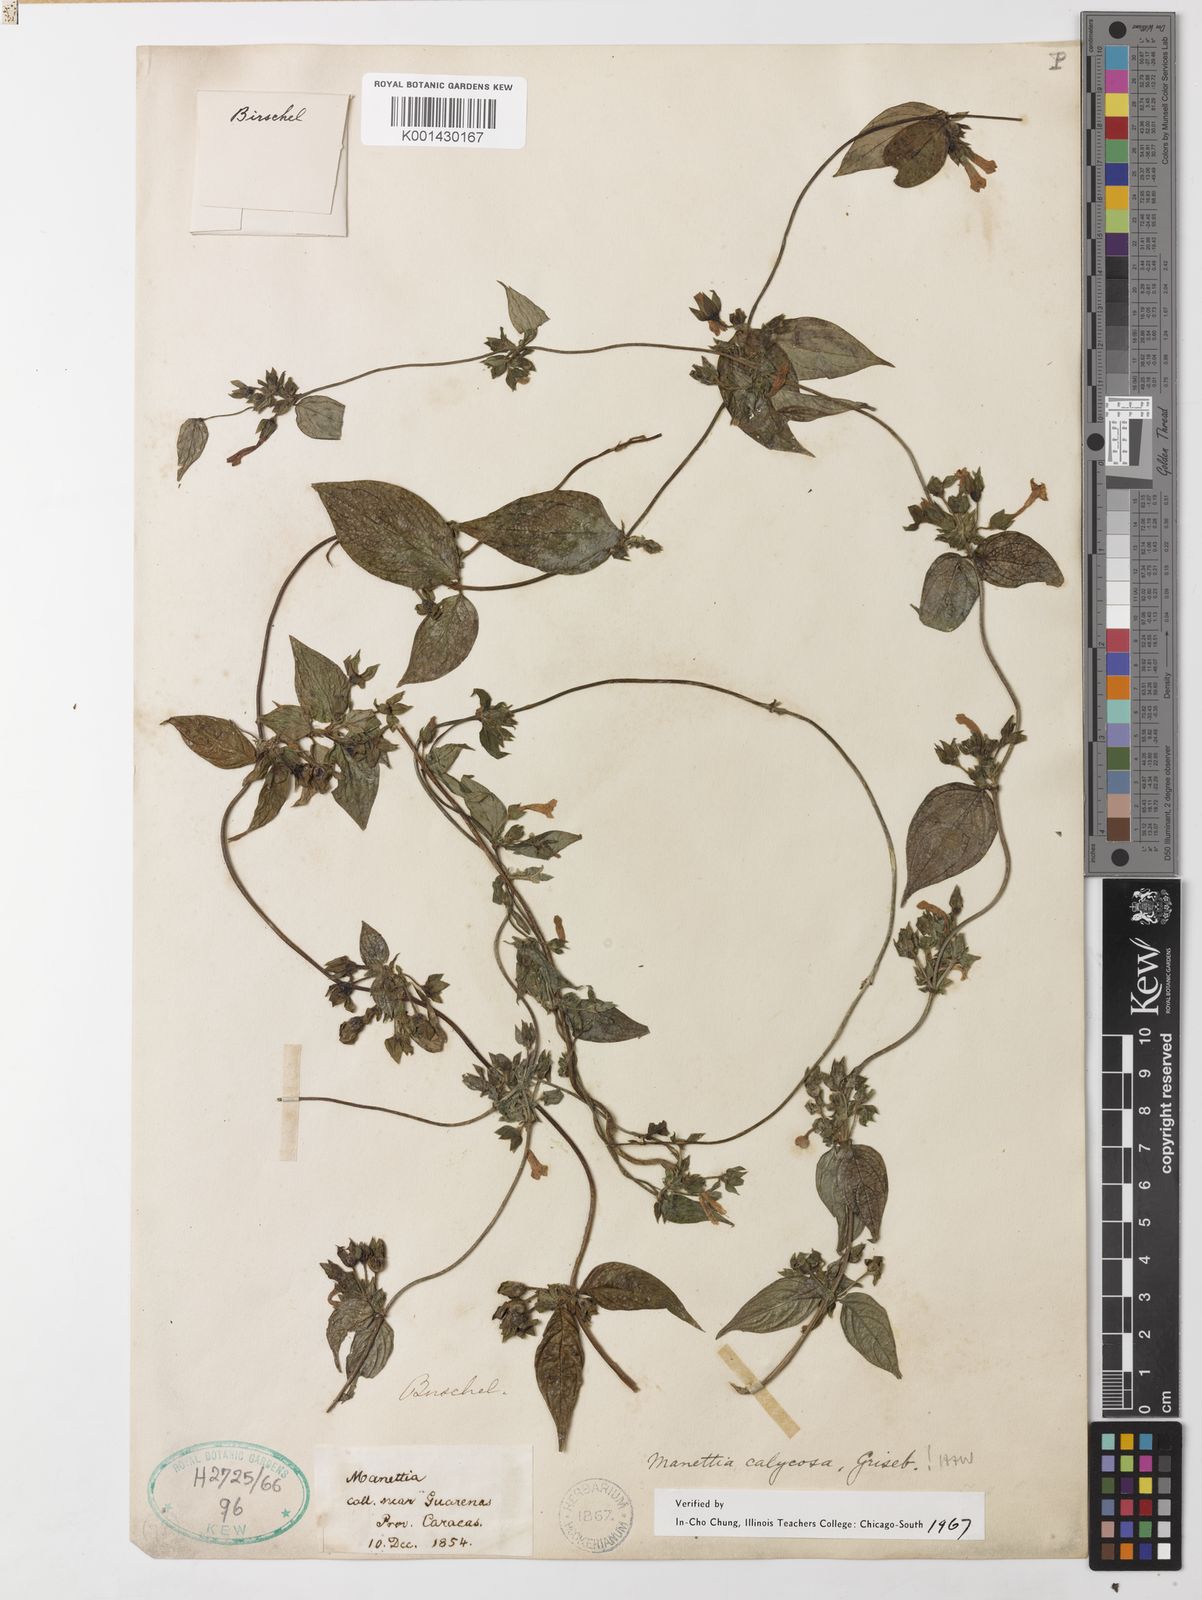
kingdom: Plantae
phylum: Tracheophyta
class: Magnoliopsida
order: Gentianales
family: Rubiaceae
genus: Manettia
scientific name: Manettia calycosa
